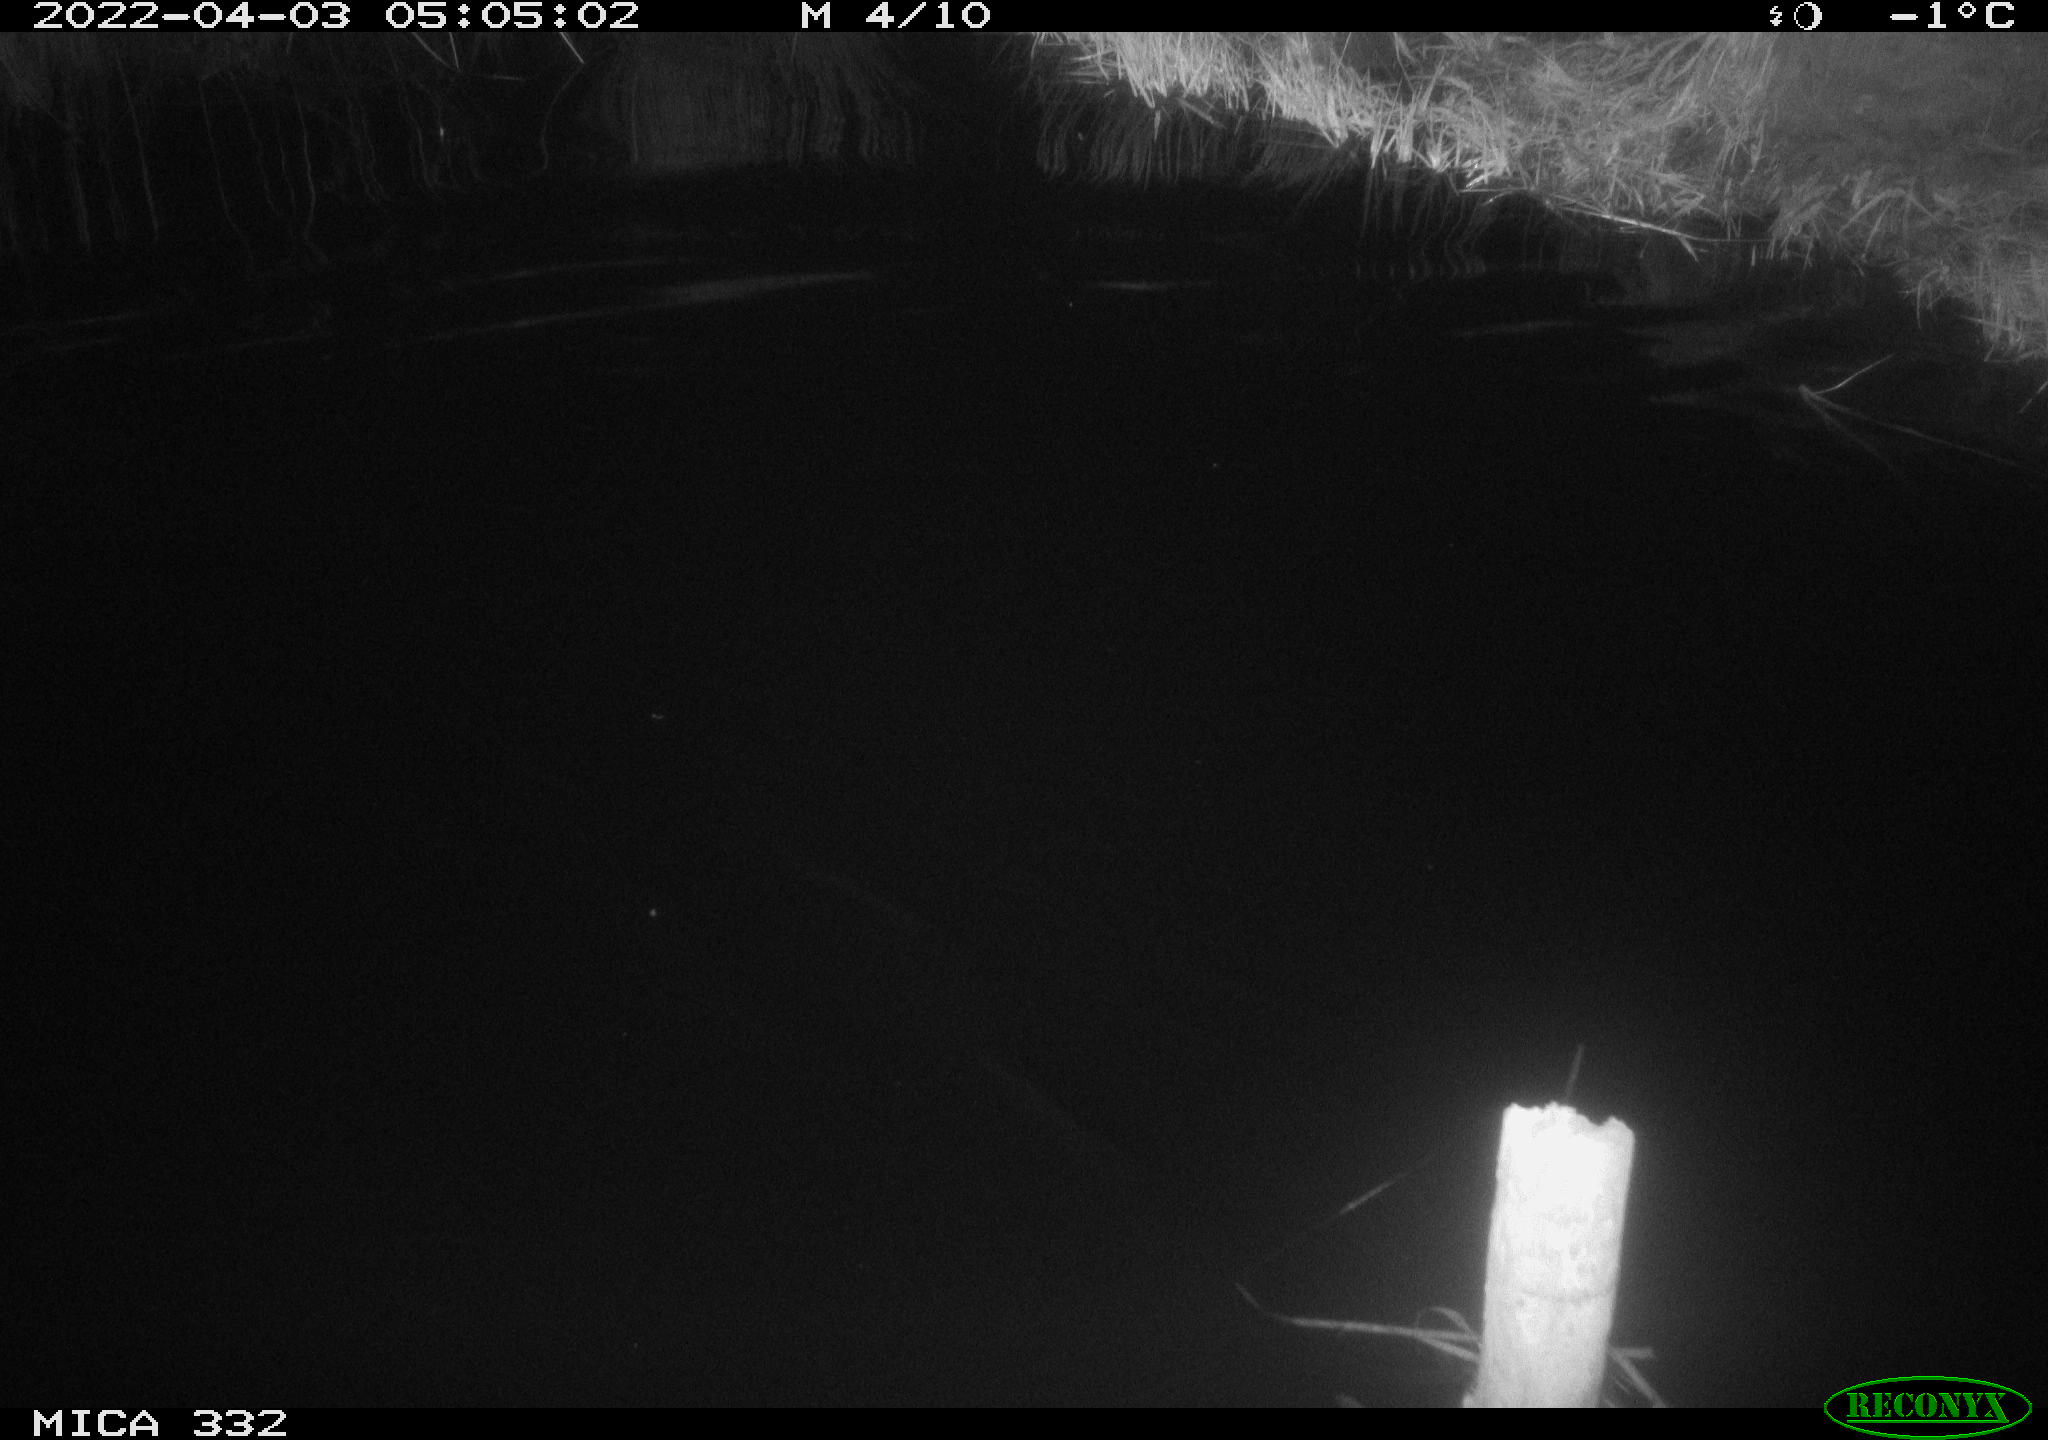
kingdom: Animalia
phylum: Chordata
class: Aves
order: Anseriformes
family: Anatidae
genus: Cygnus
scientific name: Cygnus olor
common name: Mute swan
